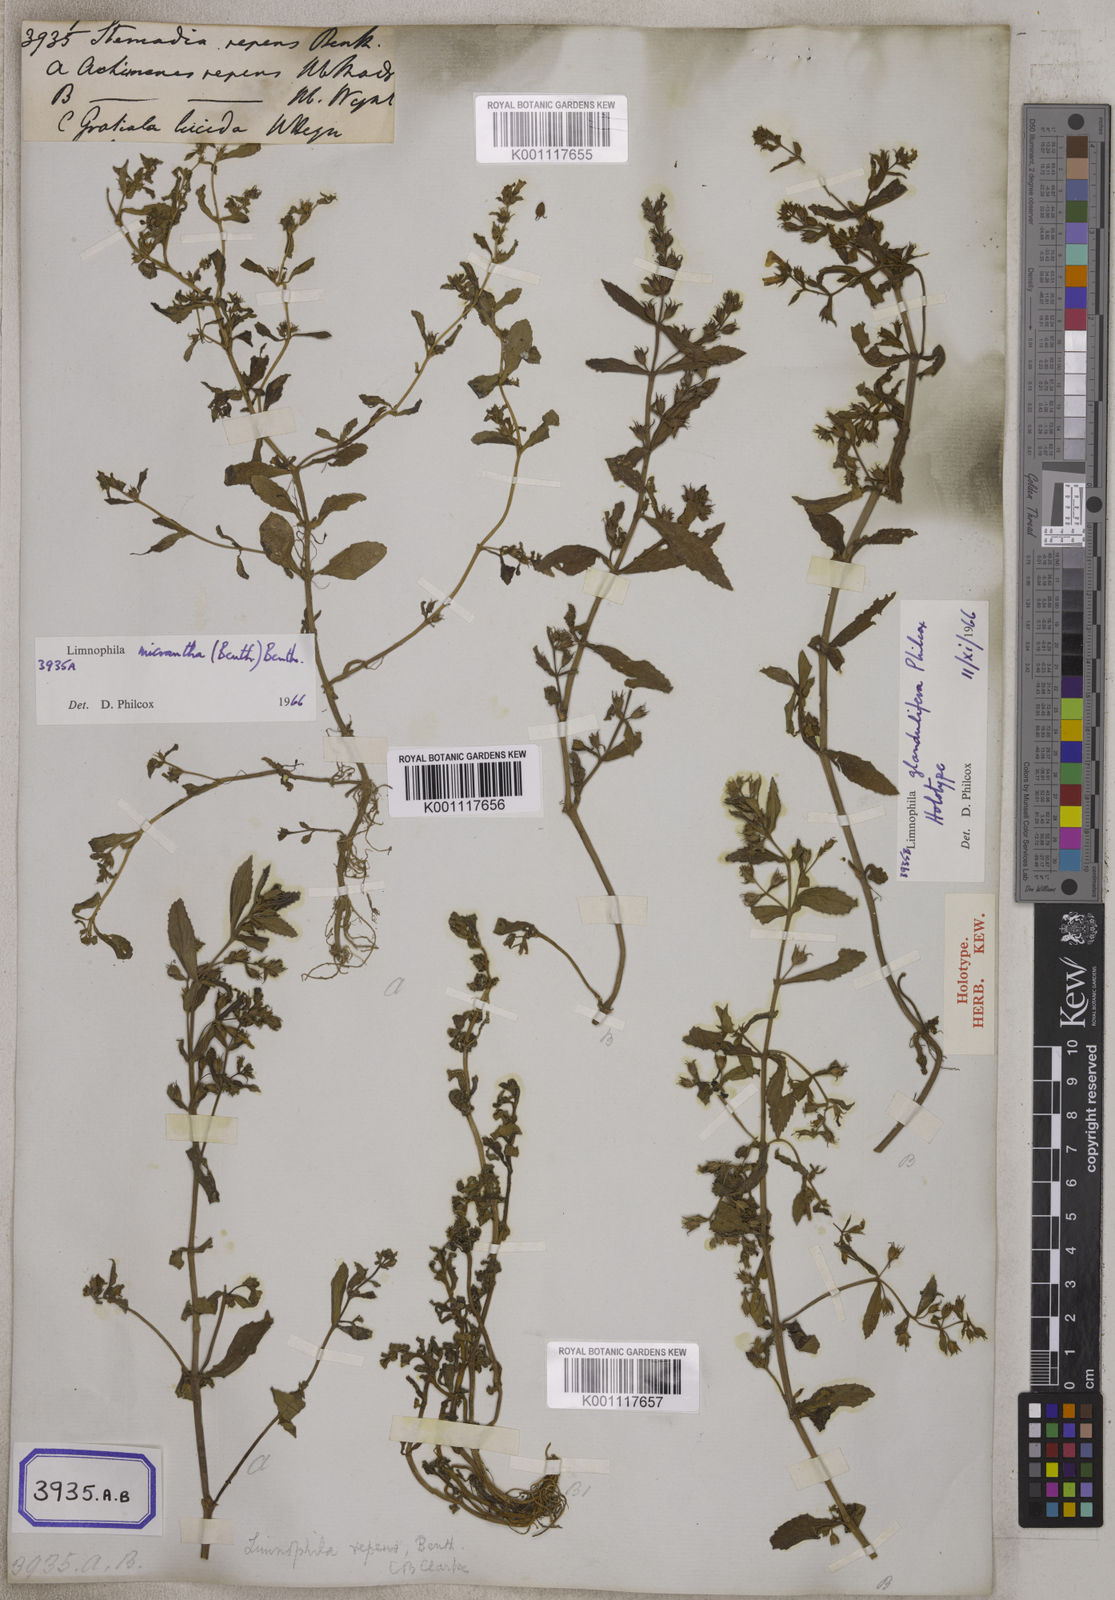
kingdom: Plantae
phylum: Tracheophyta
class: Magnoliopsida
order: Lamiales
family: Plantaginaceae
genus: Limnophila
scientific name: Limnophila repens
